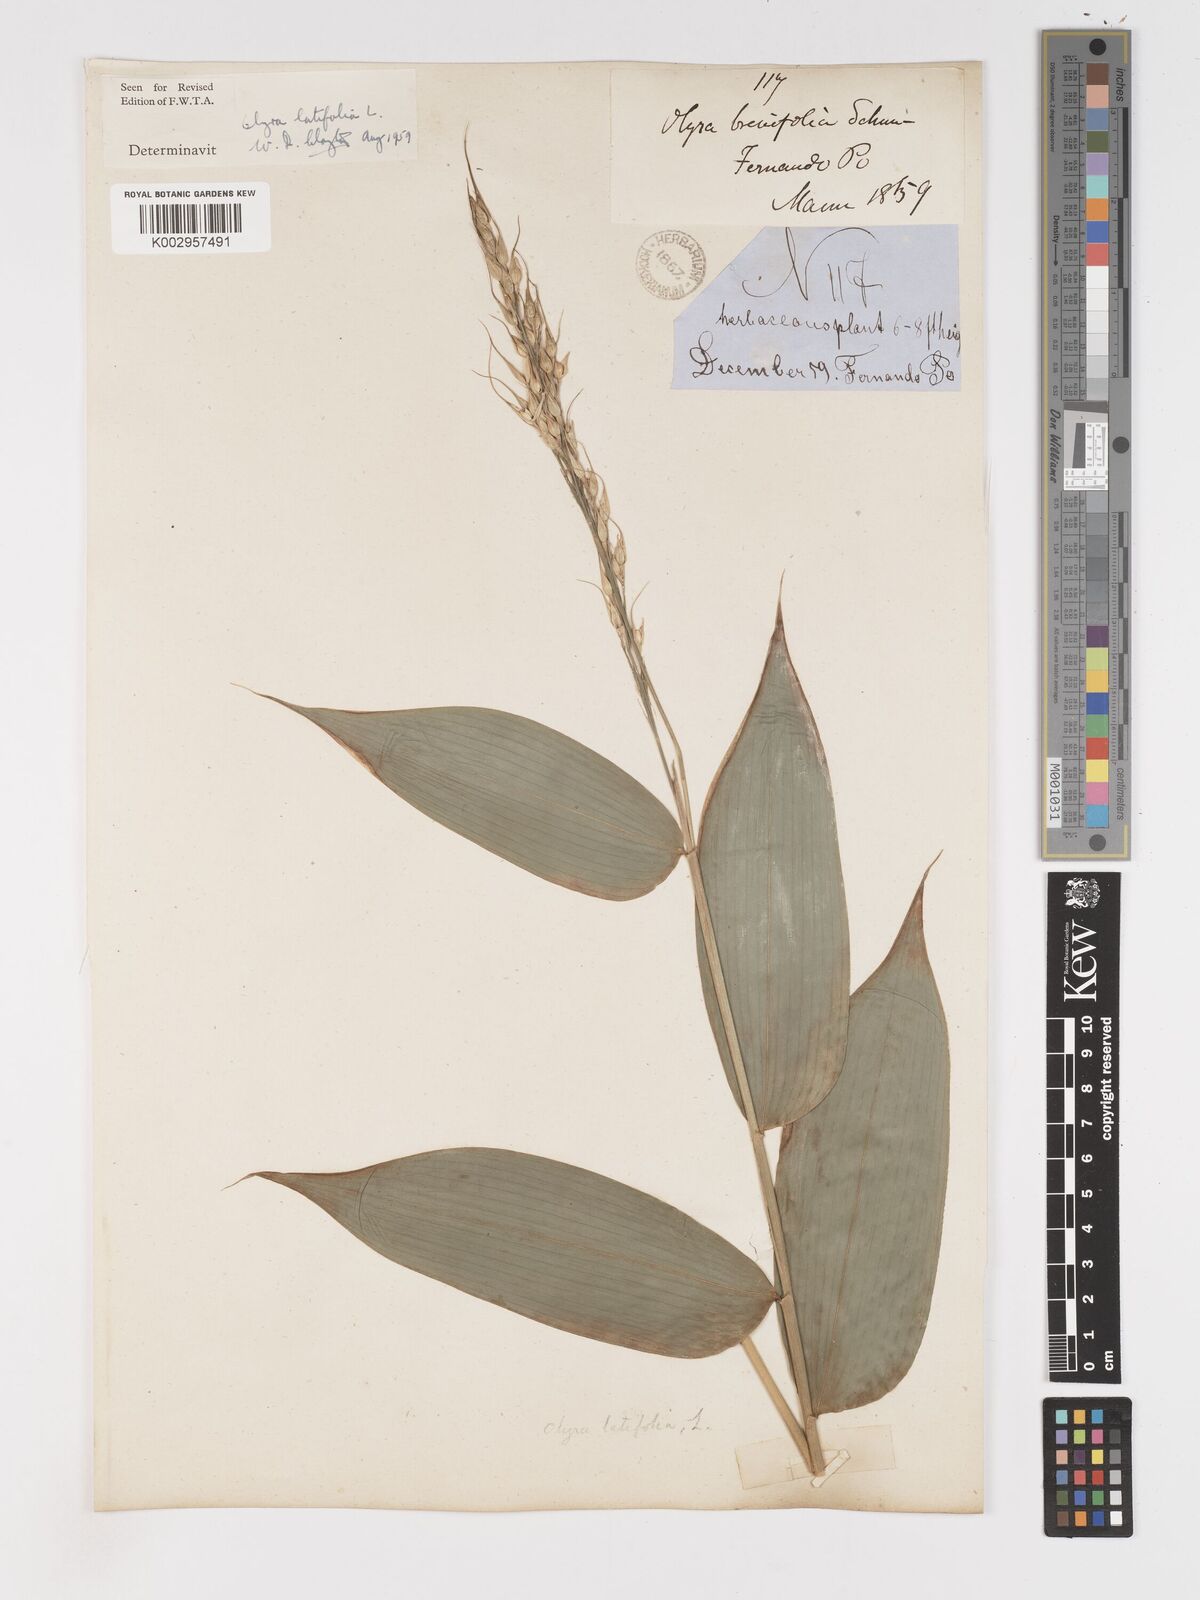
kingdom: Plantae
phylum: Tracheophyta
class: Liliopsida
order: Poales
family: Poaceae
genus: Olyra
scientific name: Olyra latifolia
